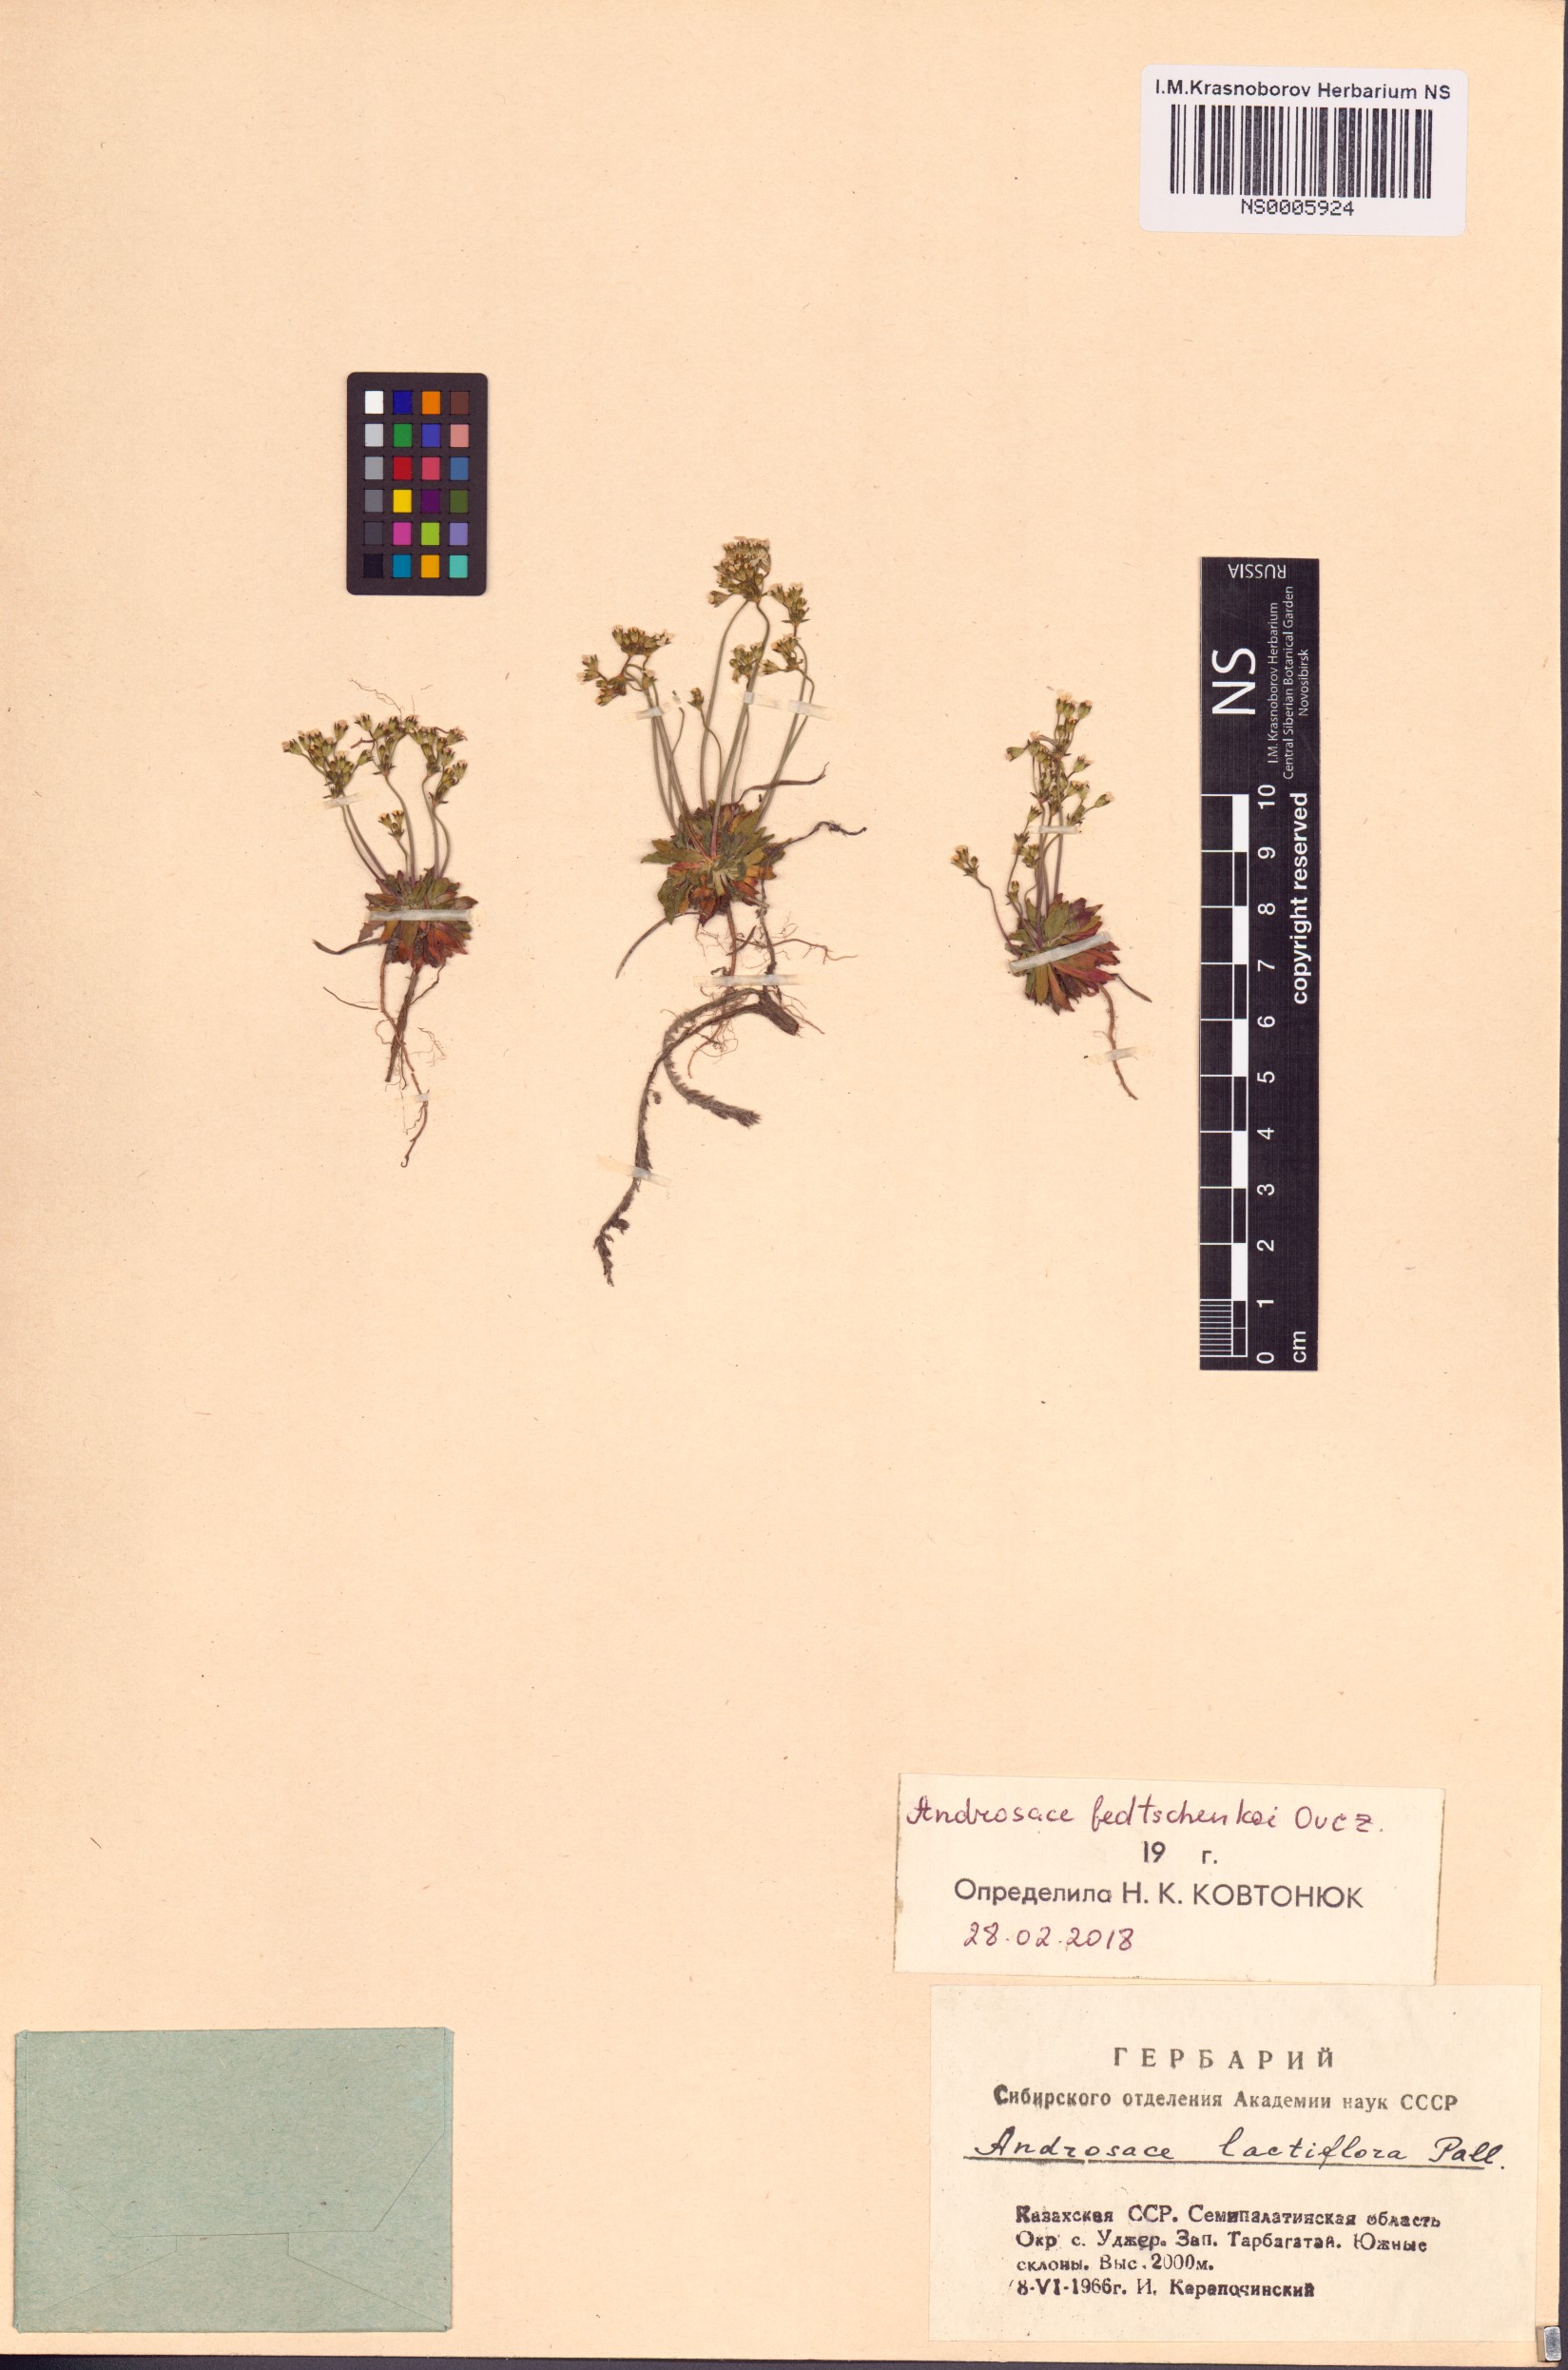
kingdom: Plantae
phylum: Tracheophyta
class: Magnoliopsida
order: Ericales
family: Primulaceae
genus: Androsace
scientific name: Androsace fedtschenkoi
